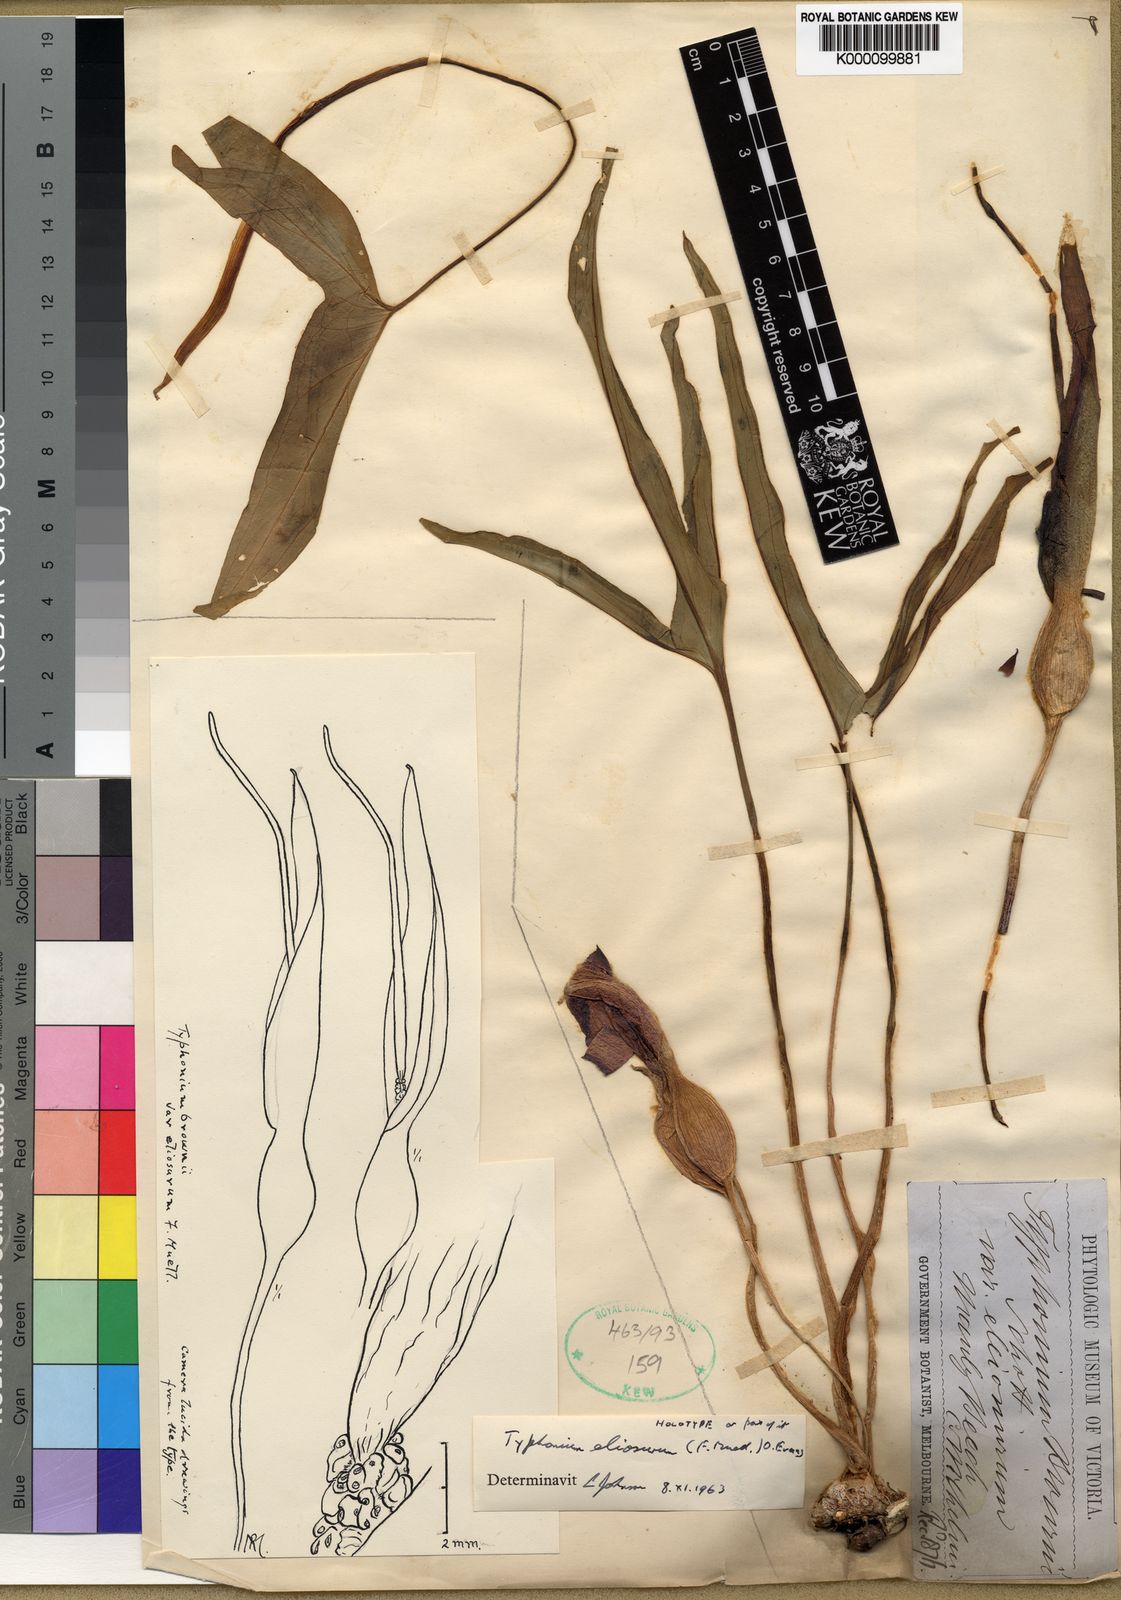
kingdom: Plantae
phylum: Tracheophyta
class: Liliopsida
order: Alismatales
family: Araceae
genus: Typhonium
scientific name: Typhonium eliosurum
